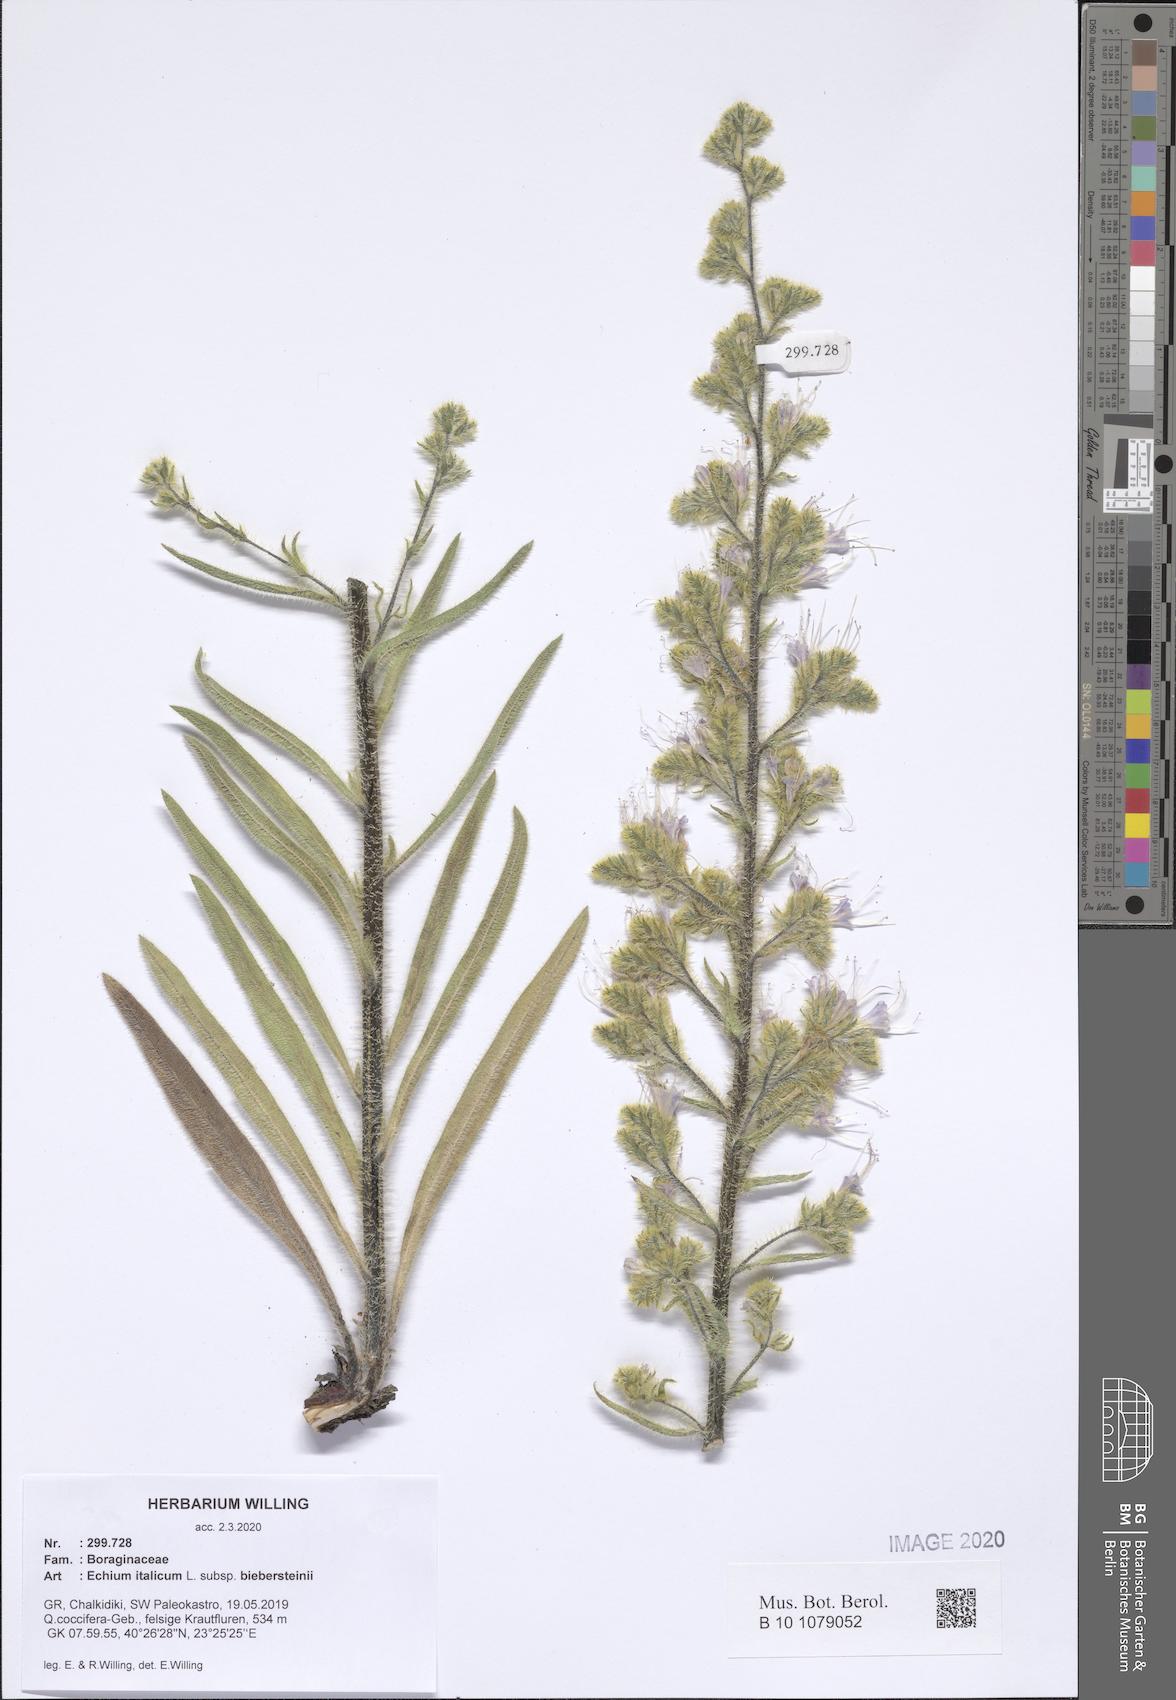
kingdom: Plantae
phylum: Tracheophyta
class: Magnoliopsida
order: Boraginales
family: Boraginaceae
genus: Echium
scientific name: Echium italicum
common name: Italian viper's bugloss
